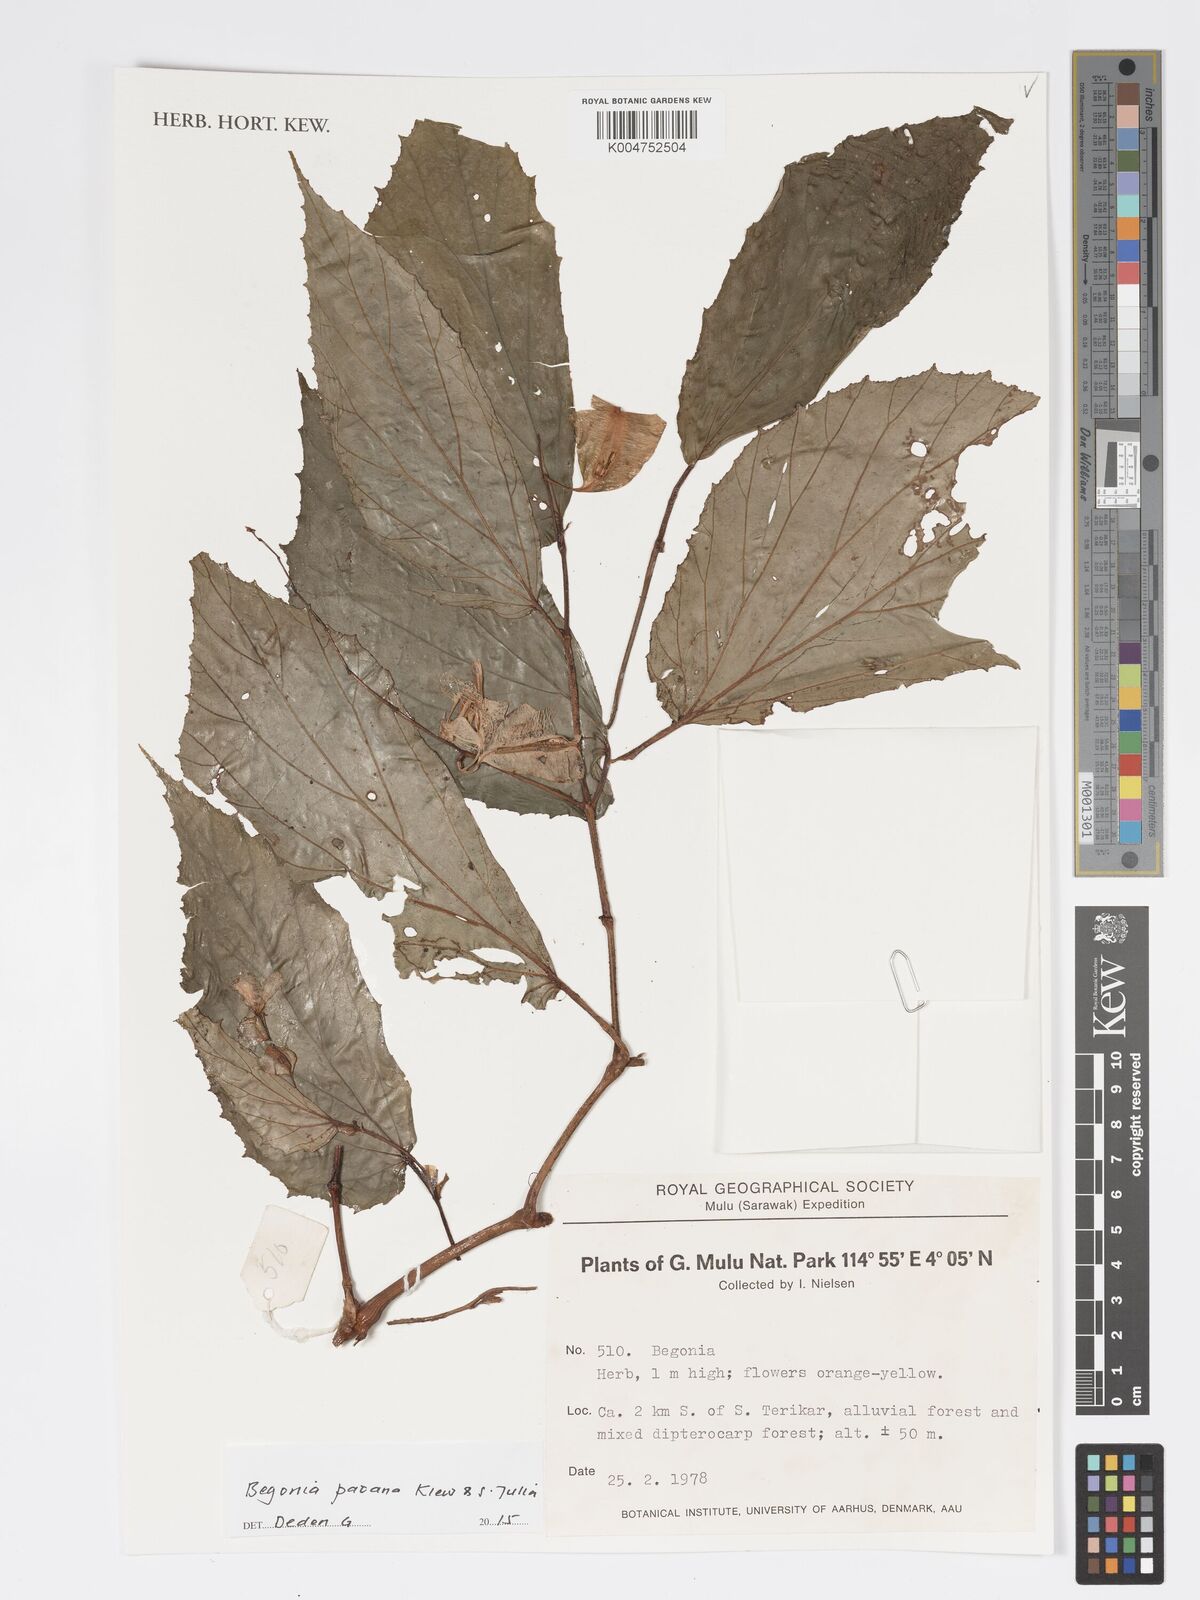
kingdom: Plantae
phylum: Tracheophyta
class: Magnoliopsida
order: Cucurbitales
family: Begoniaceae
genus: Begonia
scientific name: Begonia paoana
